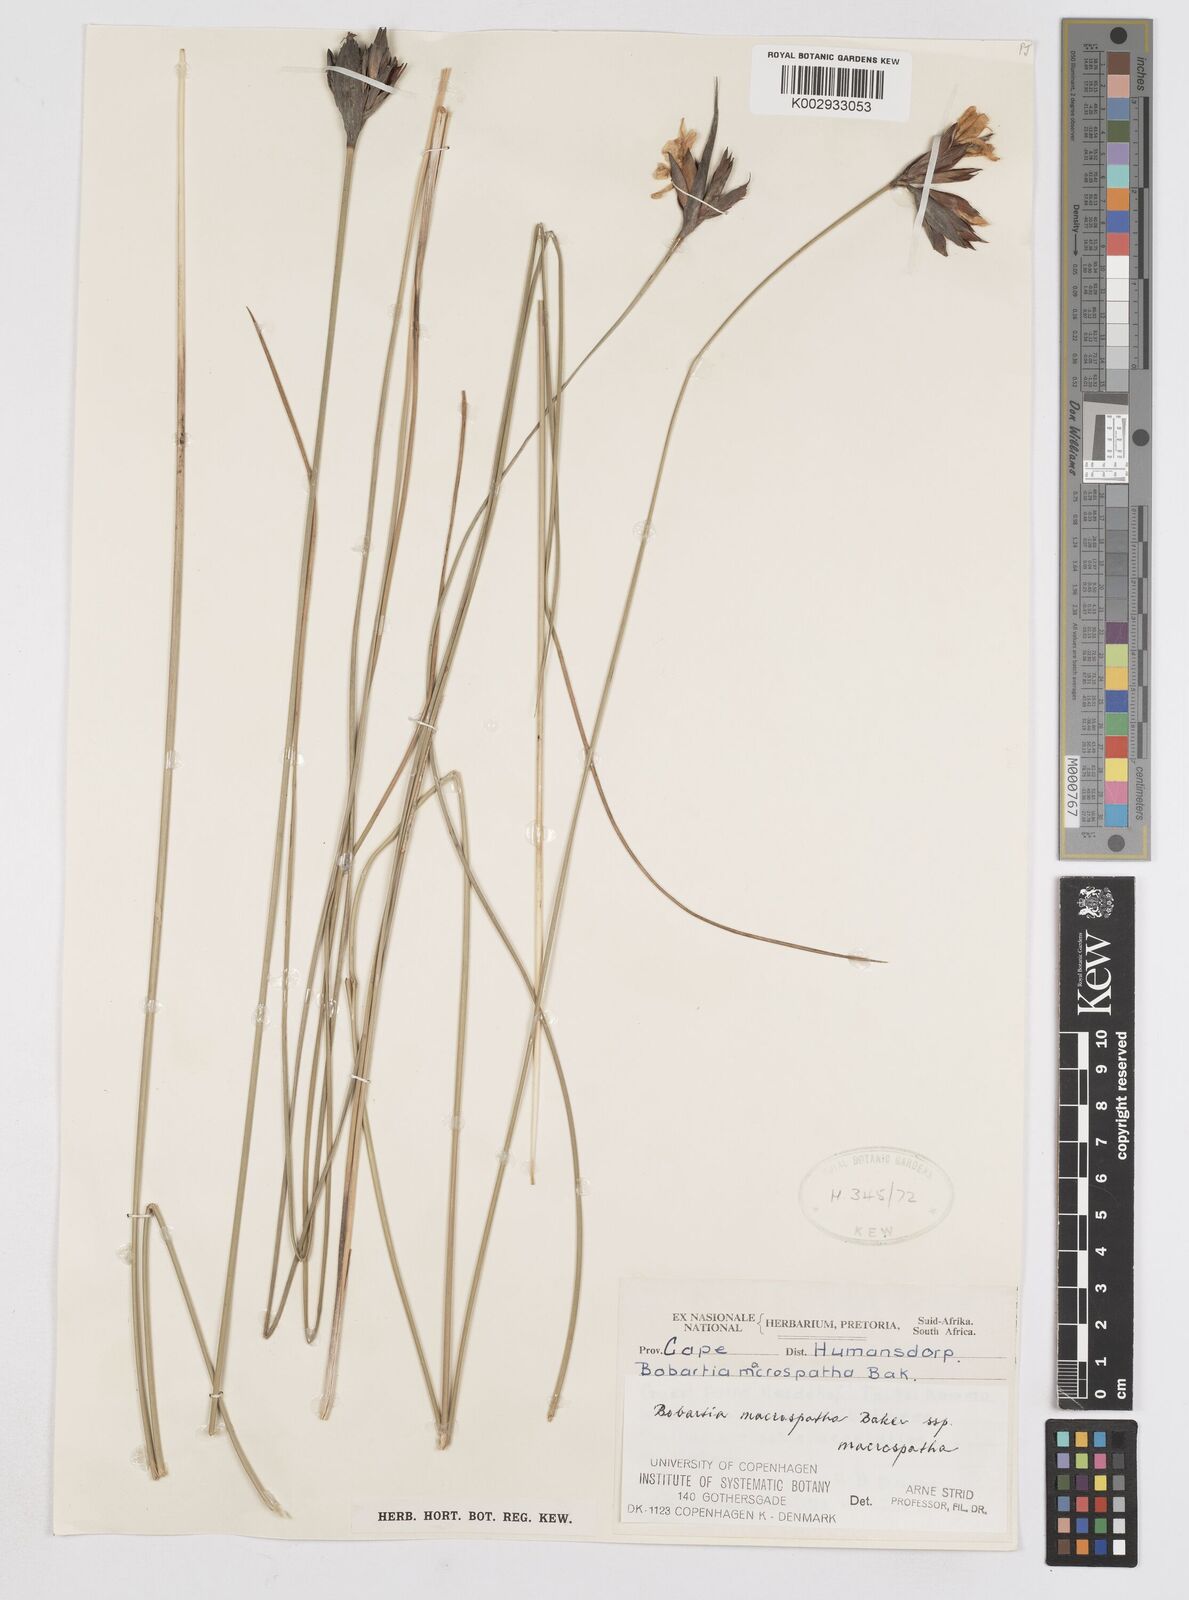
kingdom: Plantae
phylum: Tracheophyta
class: Liliopsida
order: Asparagales
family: Iridaceae
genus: Bobartia
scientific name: Bobartia macrospatha
